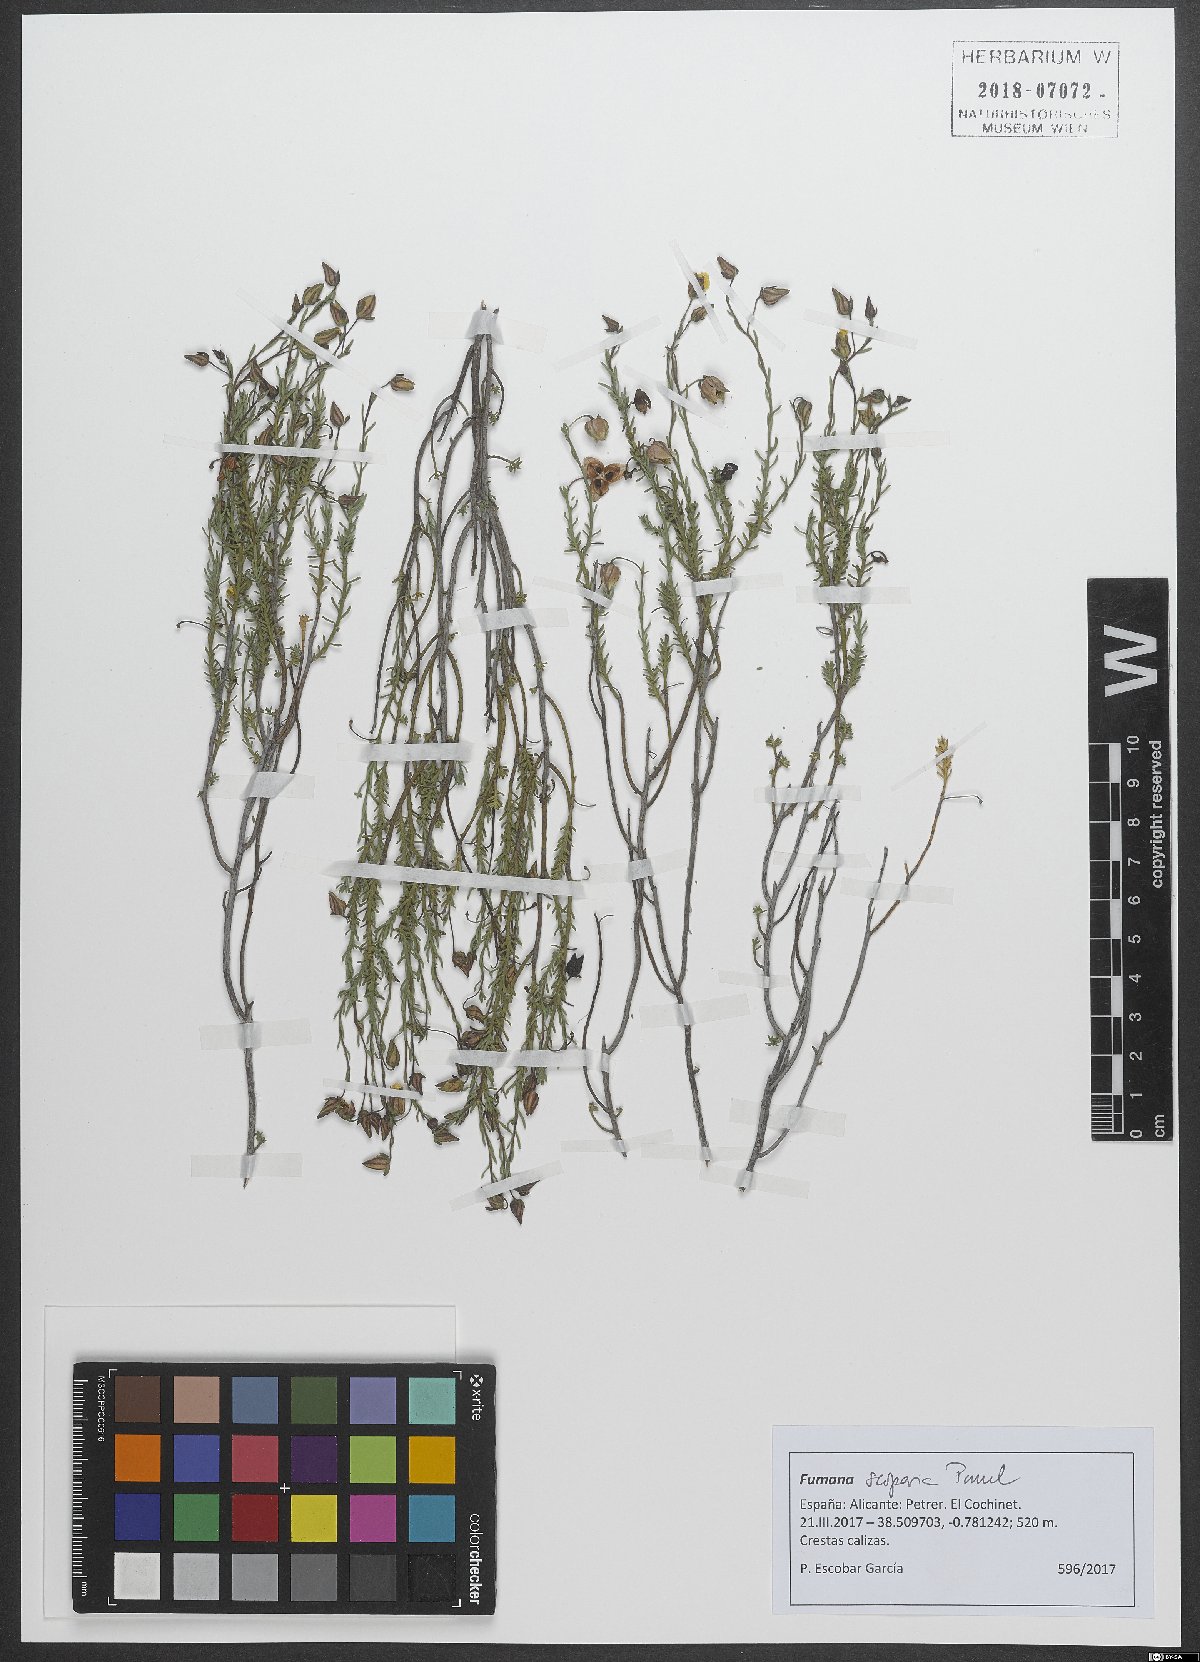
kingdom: Plantae
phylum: Tracheophyta
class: Magnoliopsida
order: Malvales
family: Cistaceae
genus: Fumana
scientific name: Fumana scoparia
